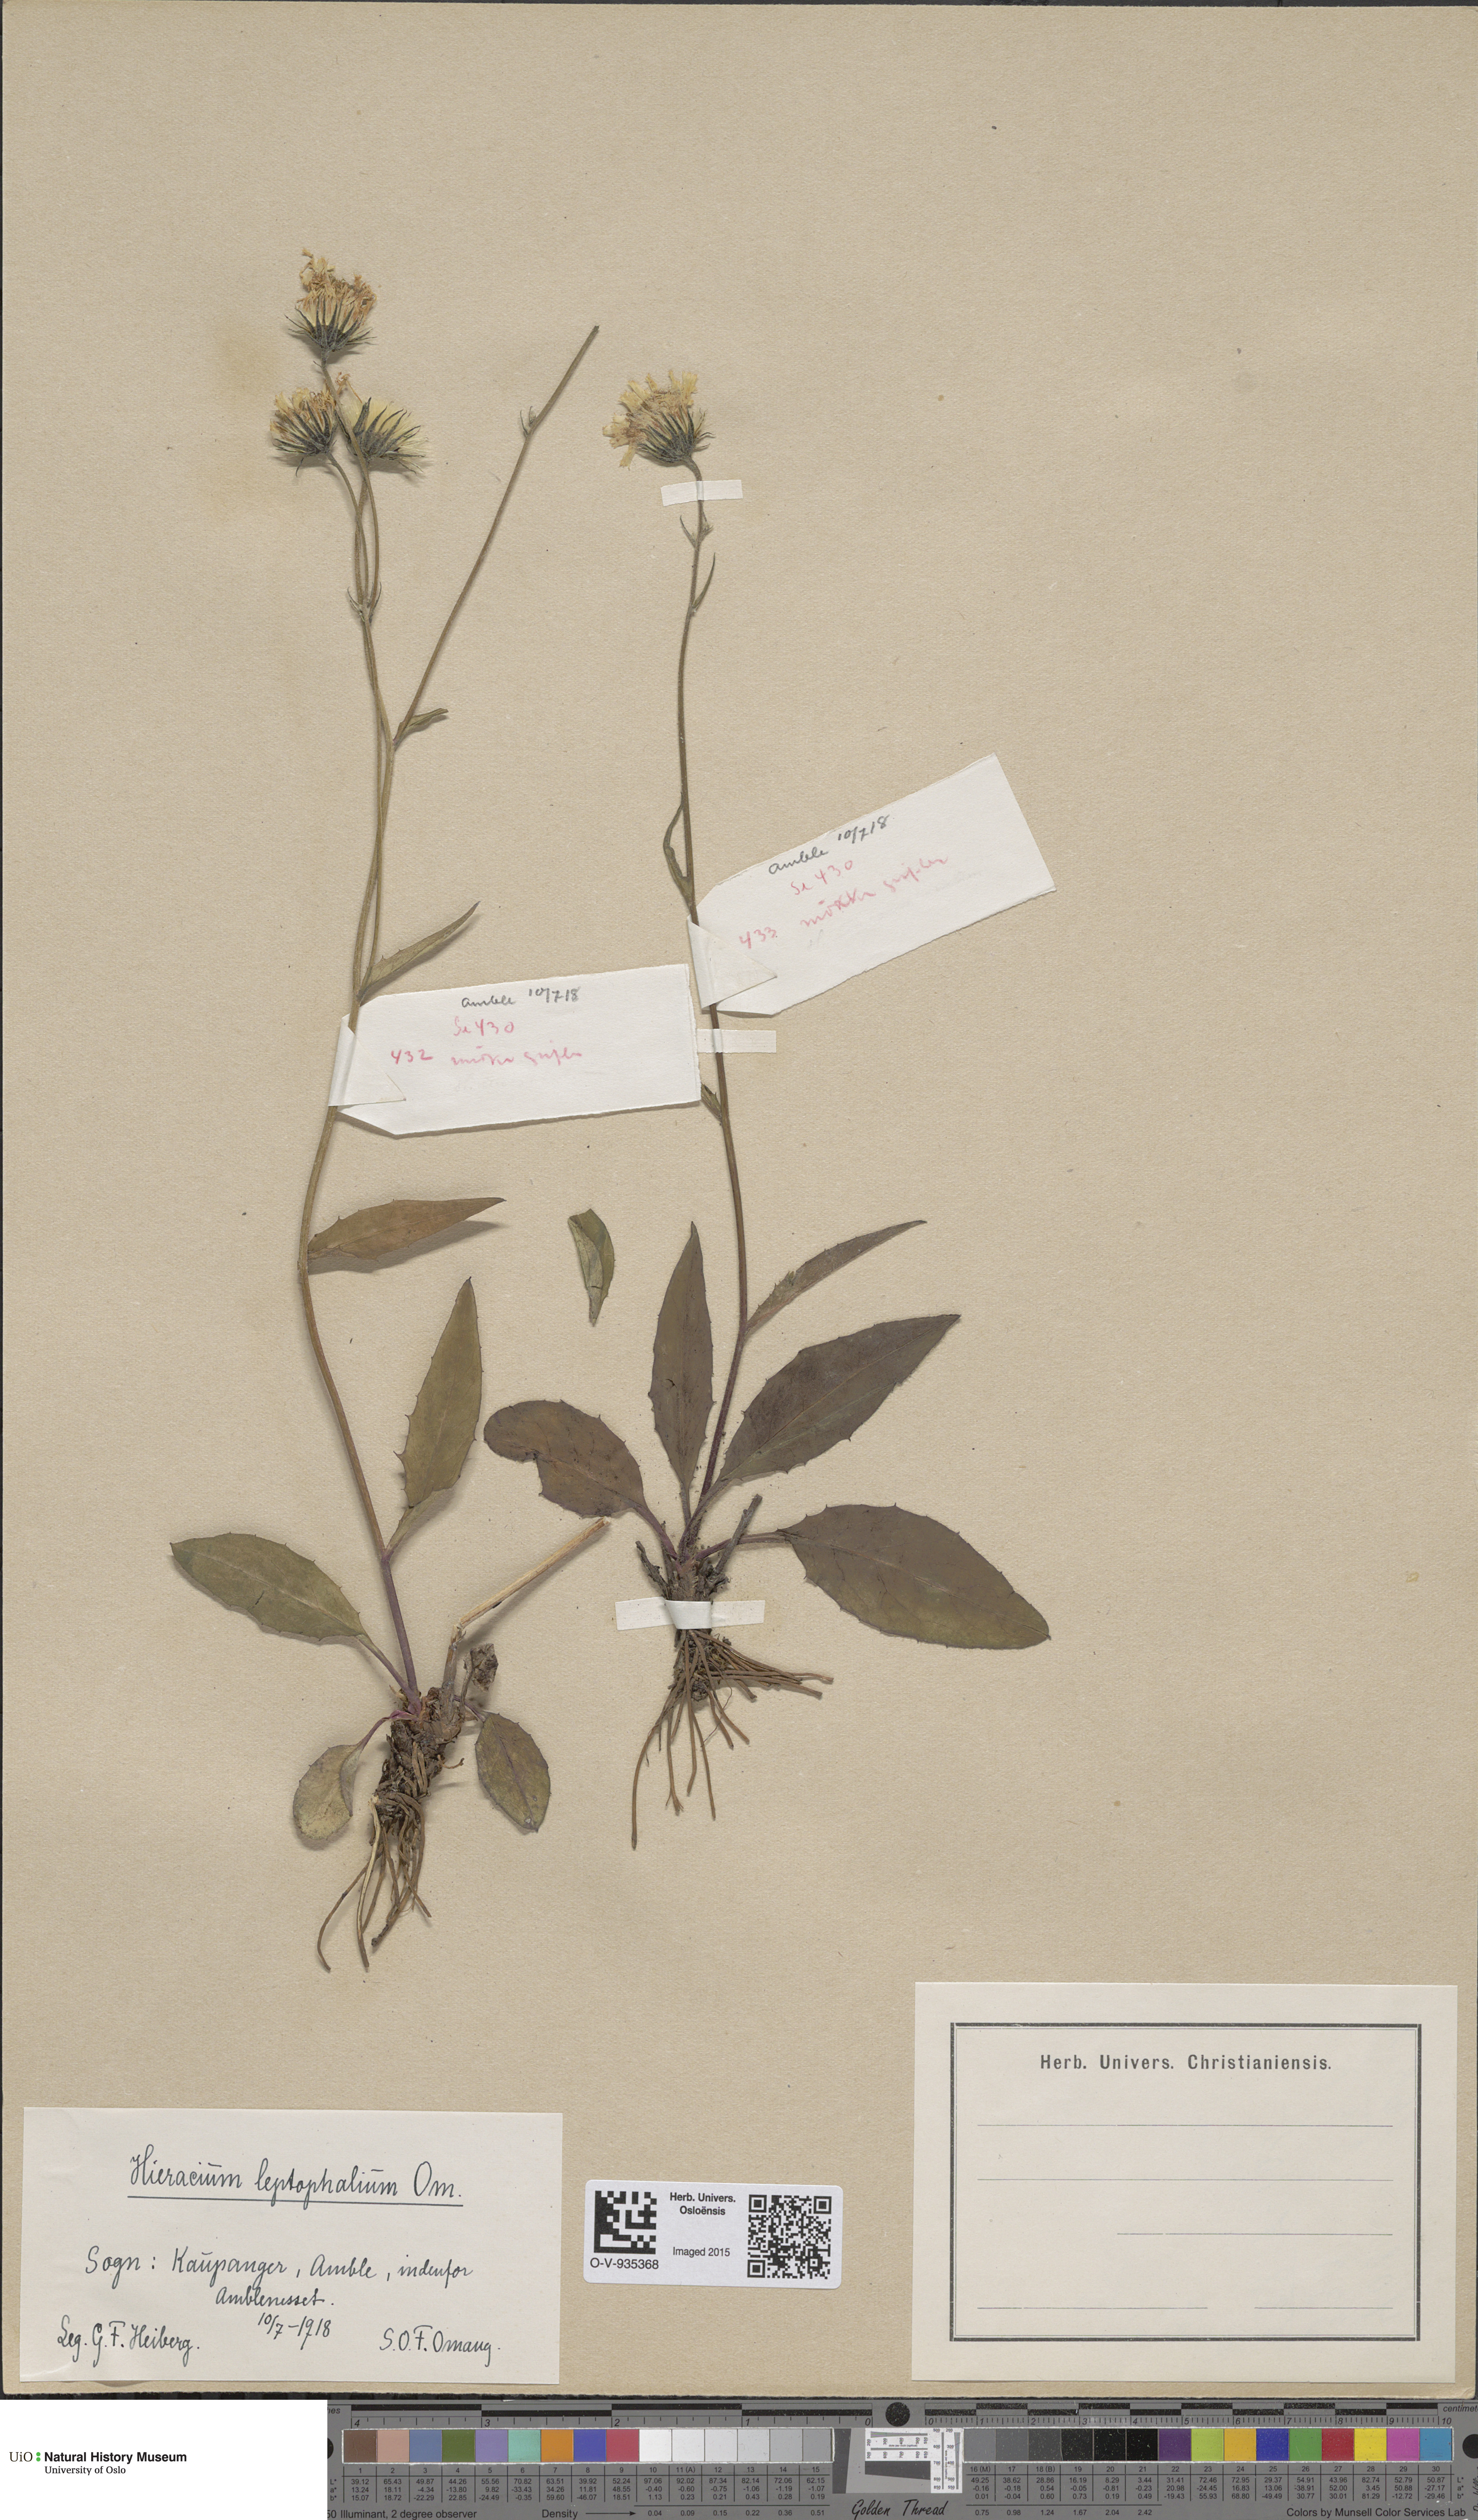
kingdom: Plantae
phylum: Tracheophyta
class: Magnoliopsida
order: Asterales
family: Asteraceae
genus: Hieracium
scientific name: Hieracium saxifragum
